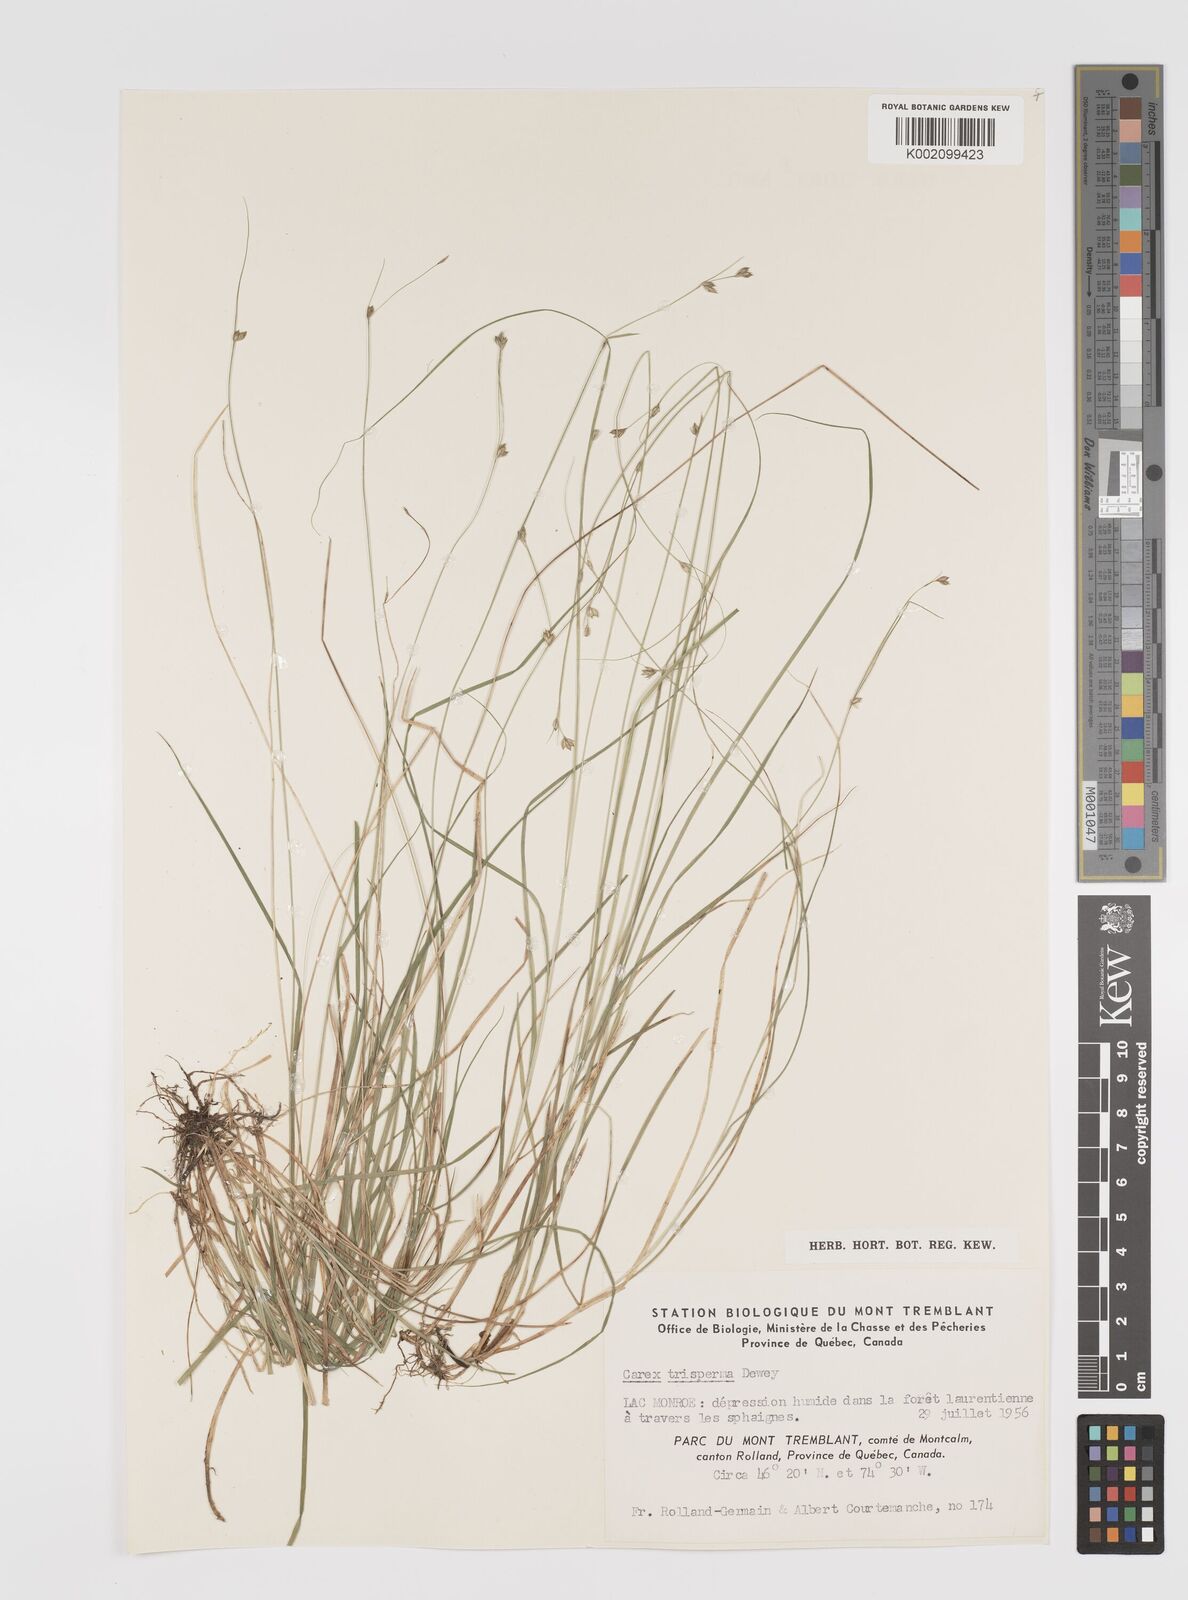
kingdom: Plantae
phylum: Tracheophyta
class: Liliopsida
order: Poales
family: Cyperaceae
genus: Carex
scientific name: Carex trisperma
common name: Three-seeded sedge
